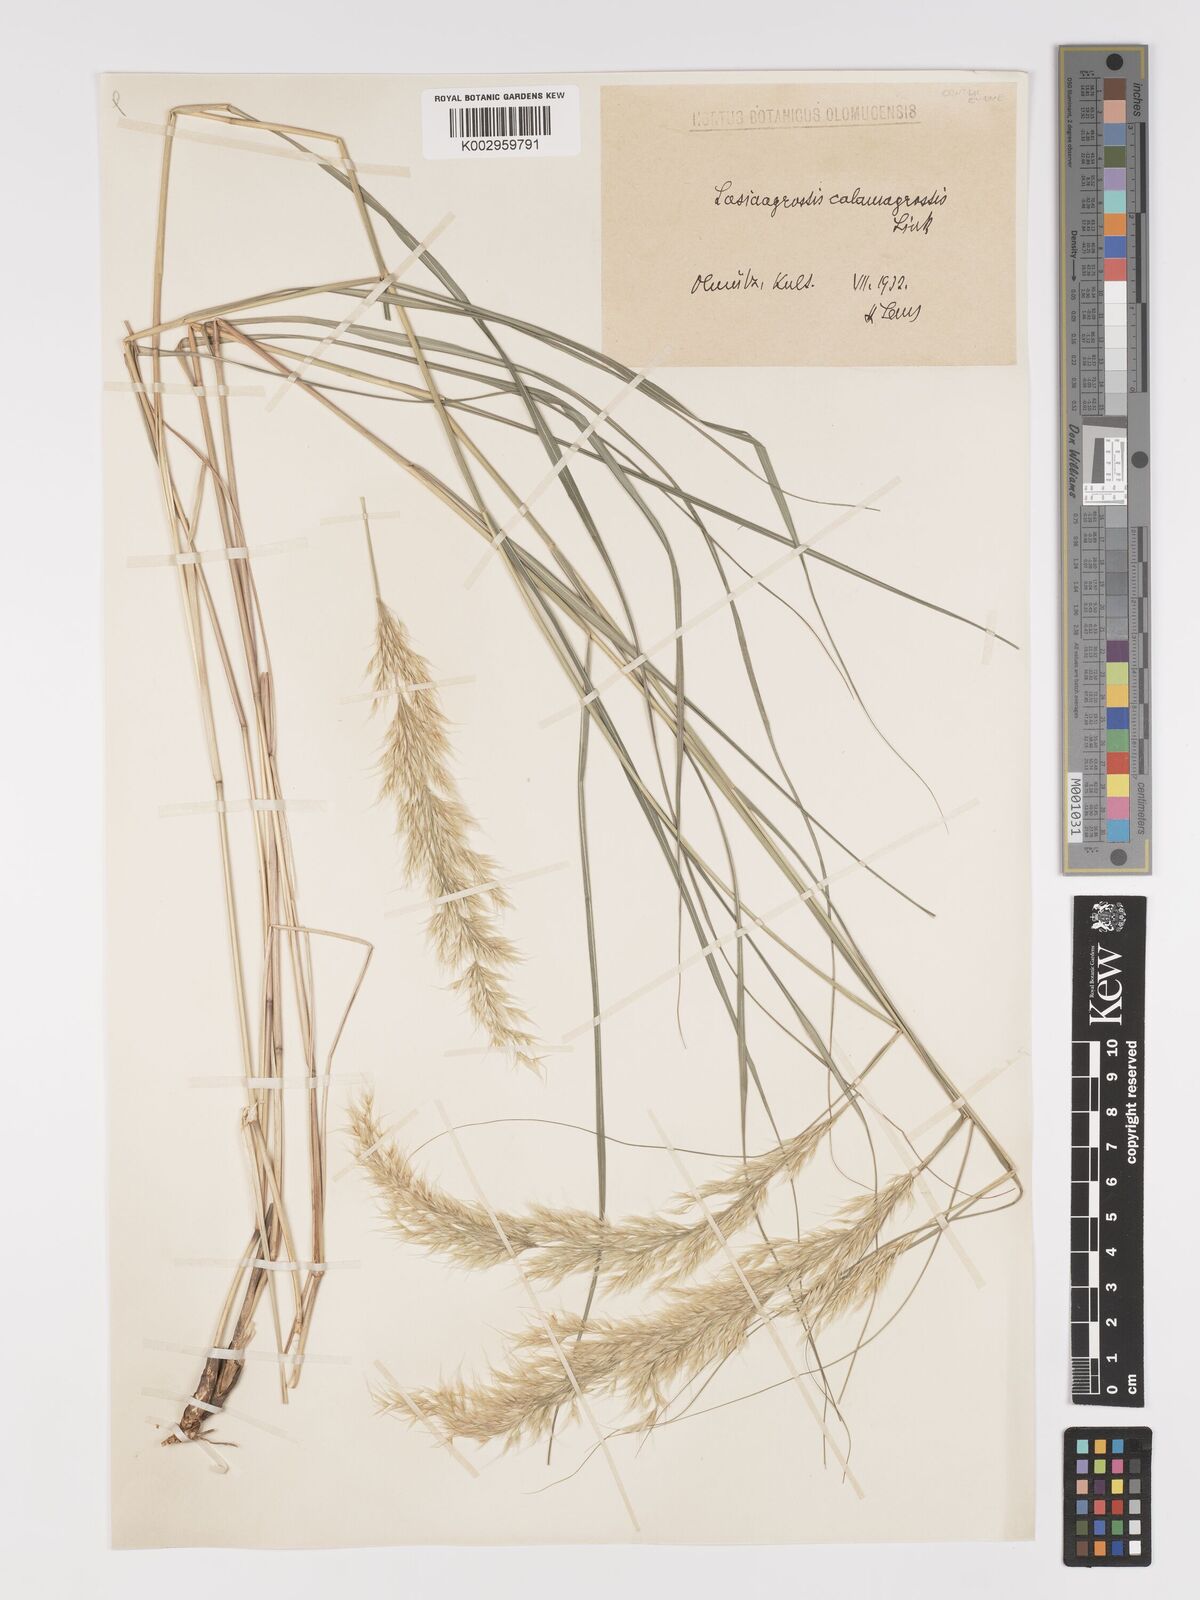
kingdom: Plantae
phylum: Tracheophyta
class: Liliopsida
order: Poales
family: Poaceae
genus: Achnatherum
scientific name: Achnatherum calamagrostis
